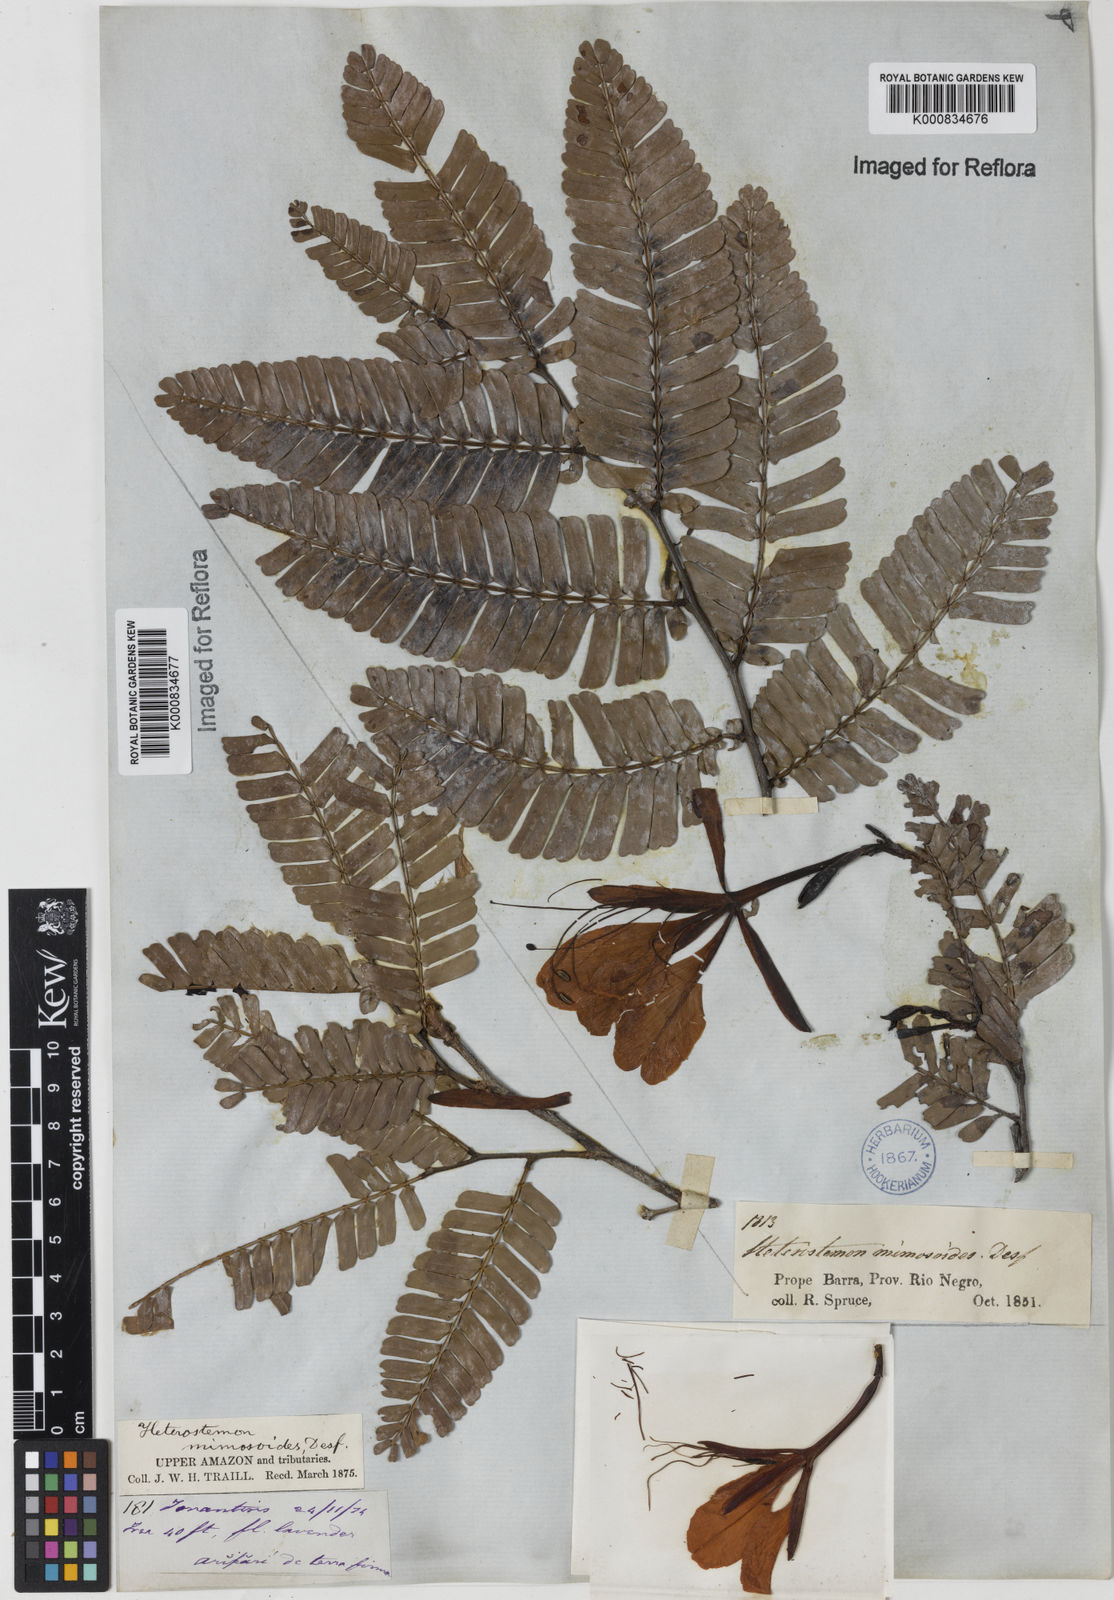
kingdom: Plantae
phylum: Tracheophyta
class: Magnoliopsida
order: Fabales
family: Fabaceae
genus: Heterostemon
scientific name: Heterostemon mimosoides
